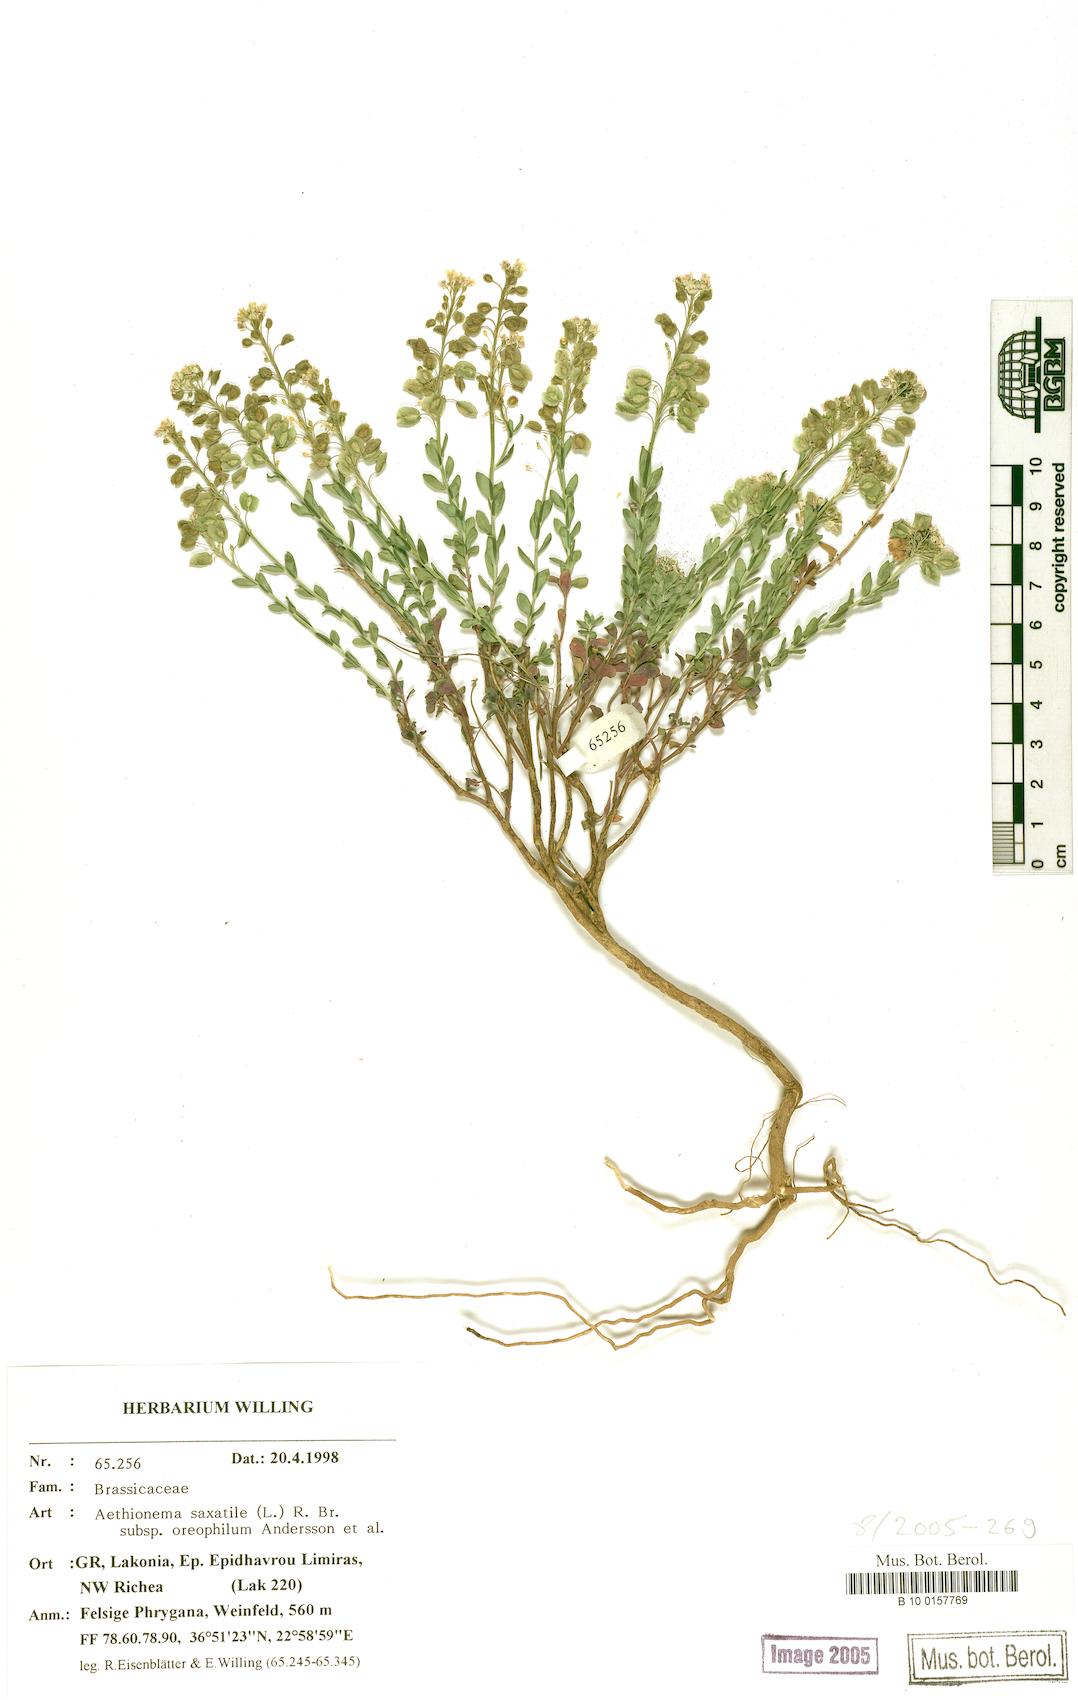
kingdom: Plantae
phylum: Tracheophyta
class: Magnoliopsida
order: Brassicales
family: Brassicaceae
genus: Aethionema
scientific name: Aethionema saxatile
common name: Burnt candytuft
